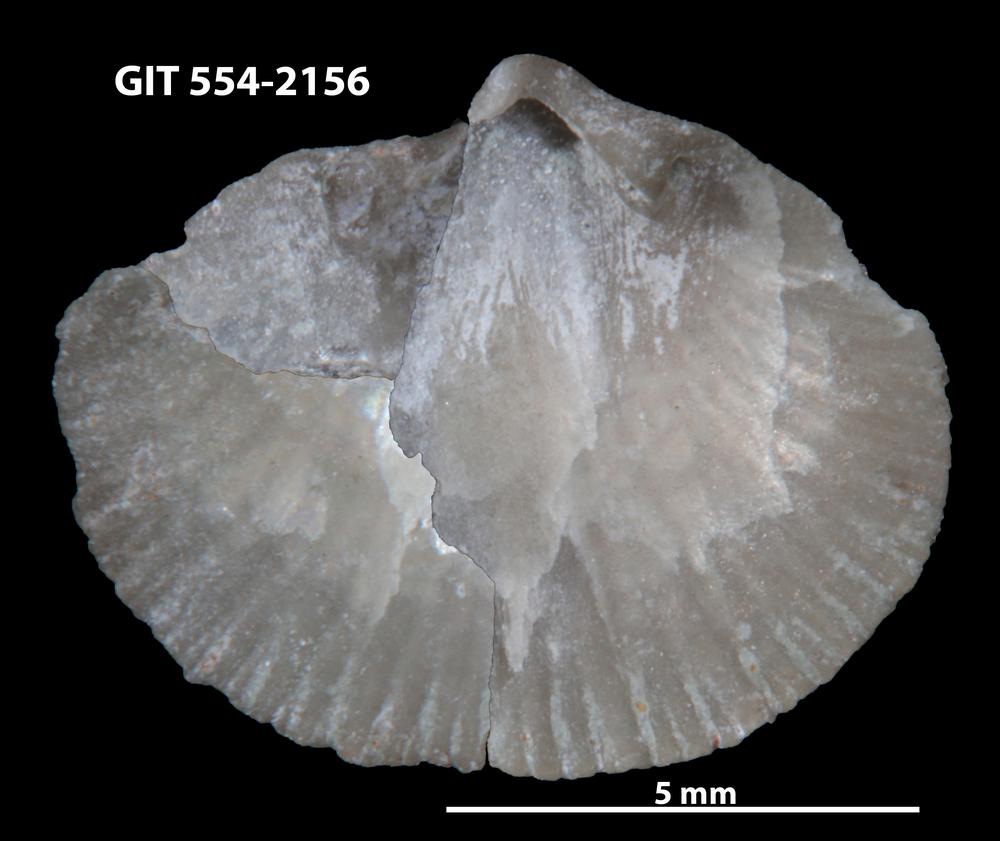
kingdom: Animalia
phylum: Brachiopoda
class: Rhynchonellata
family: Schizophoriidae
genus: Salopina
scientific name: Salopina Dalmanella submedia
